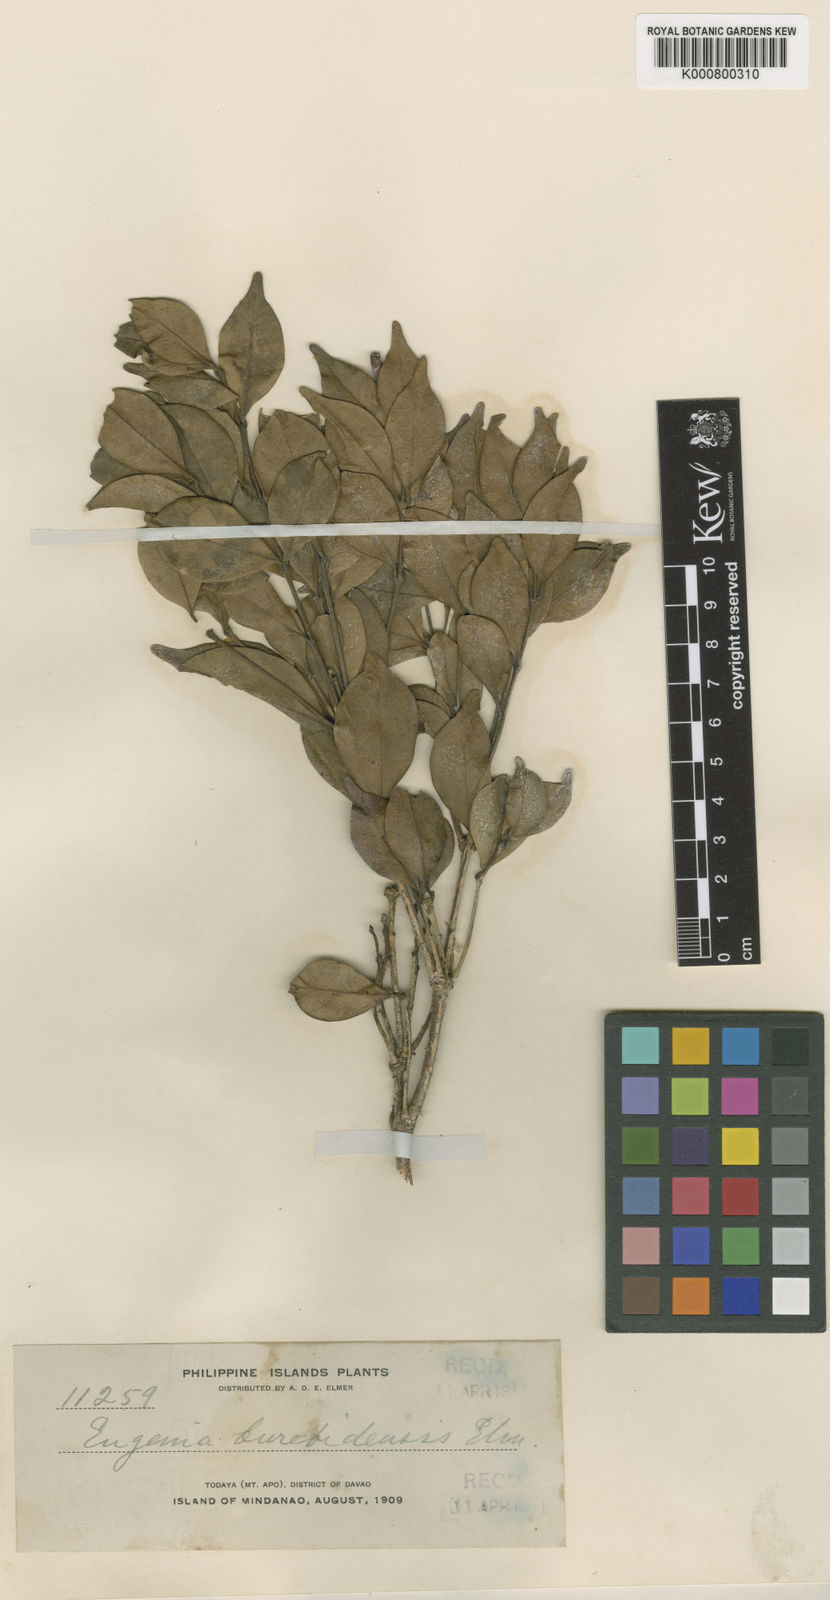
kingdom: Plantae
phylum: Tracheophyta
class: Magnoliopsida
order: Myrtales
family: Myrtaceae
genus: Syzygium
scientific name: Syzygium rosenbluthii
